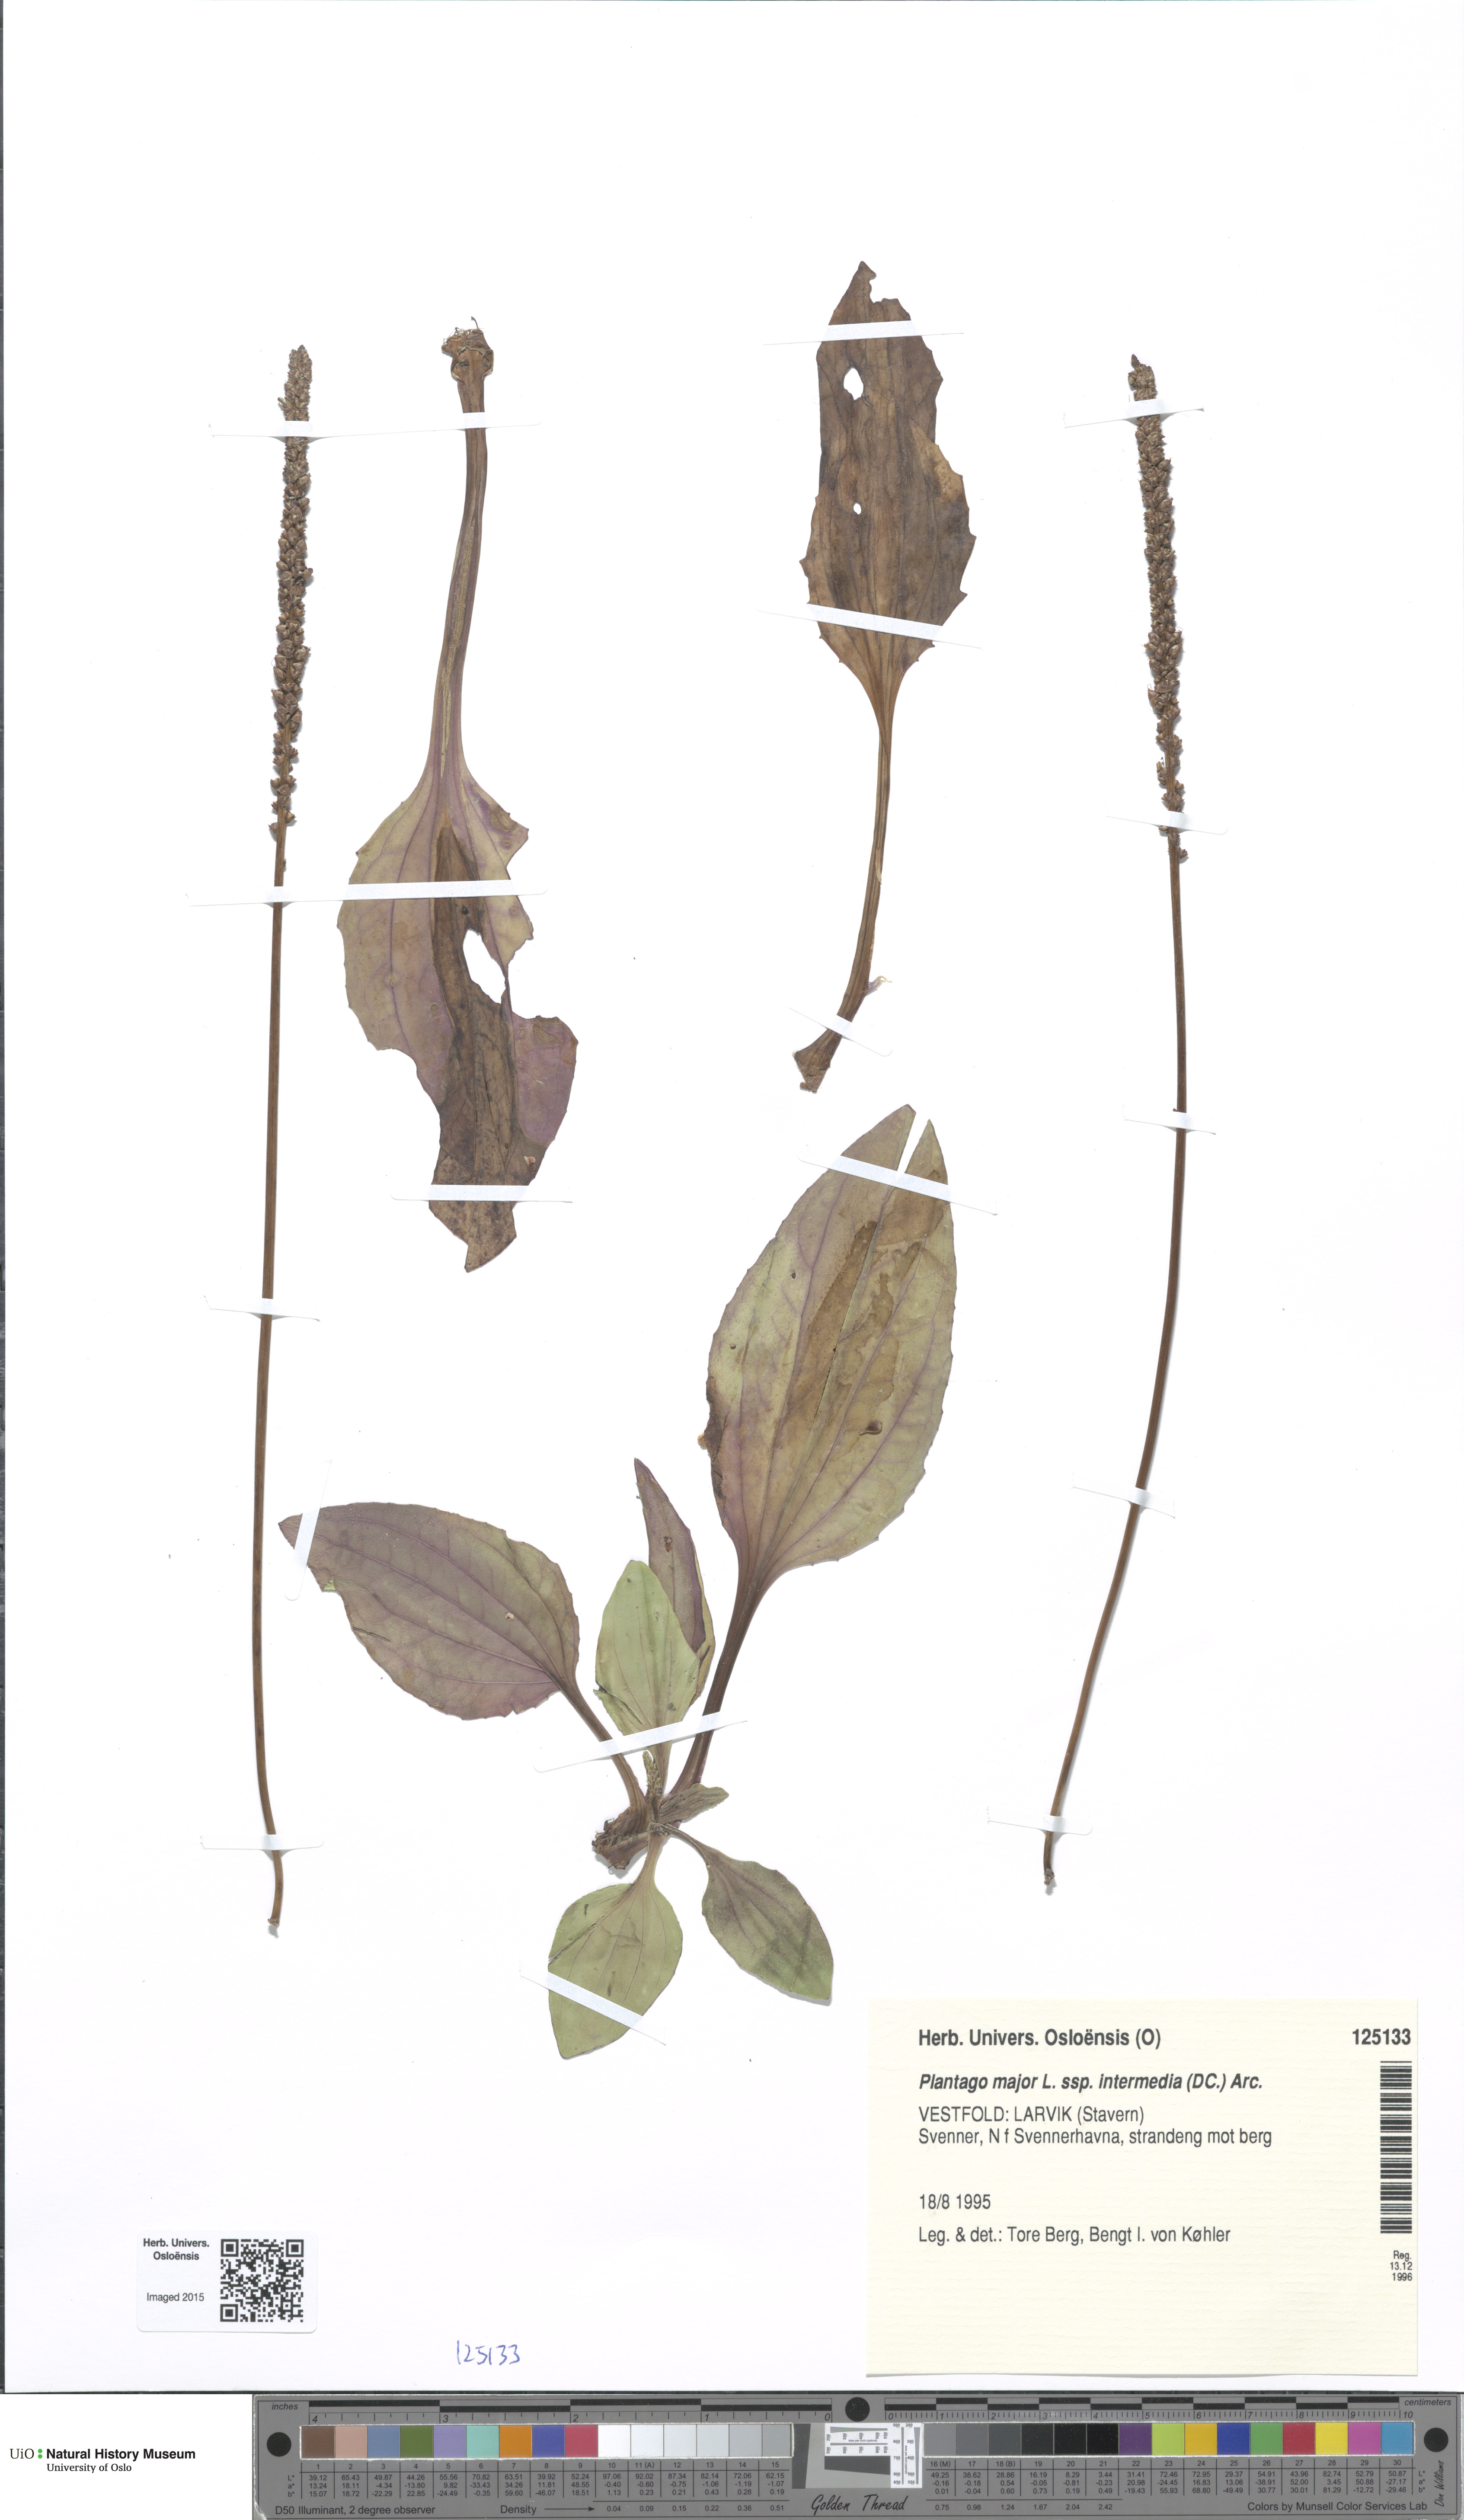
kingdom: Plantae
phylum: Tracheophyta
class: Magnoliopsida
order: Lamiales
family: Plantaginaceae
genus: Plantago
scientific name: Plantago uliginosa
